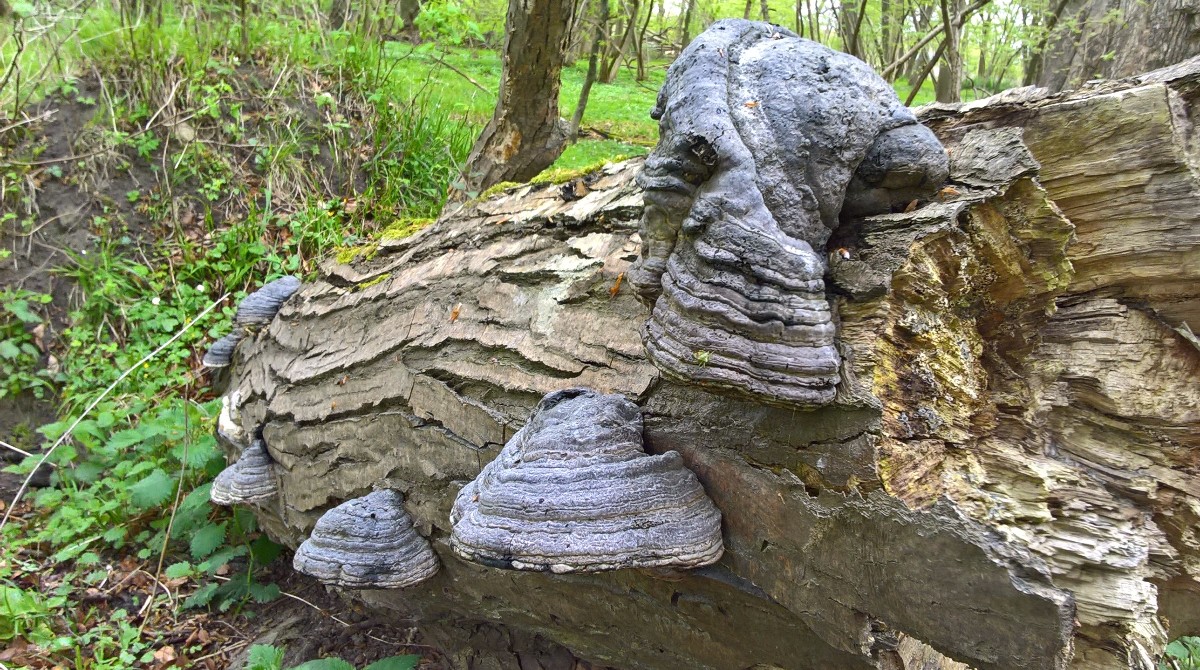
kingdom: Fungi
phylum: Basidiomycota
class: Agaricomycetes
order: Polyporales
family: Polyporaceae
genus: Fomes
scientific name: Fomes fomentarius
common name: tøndersvamp
